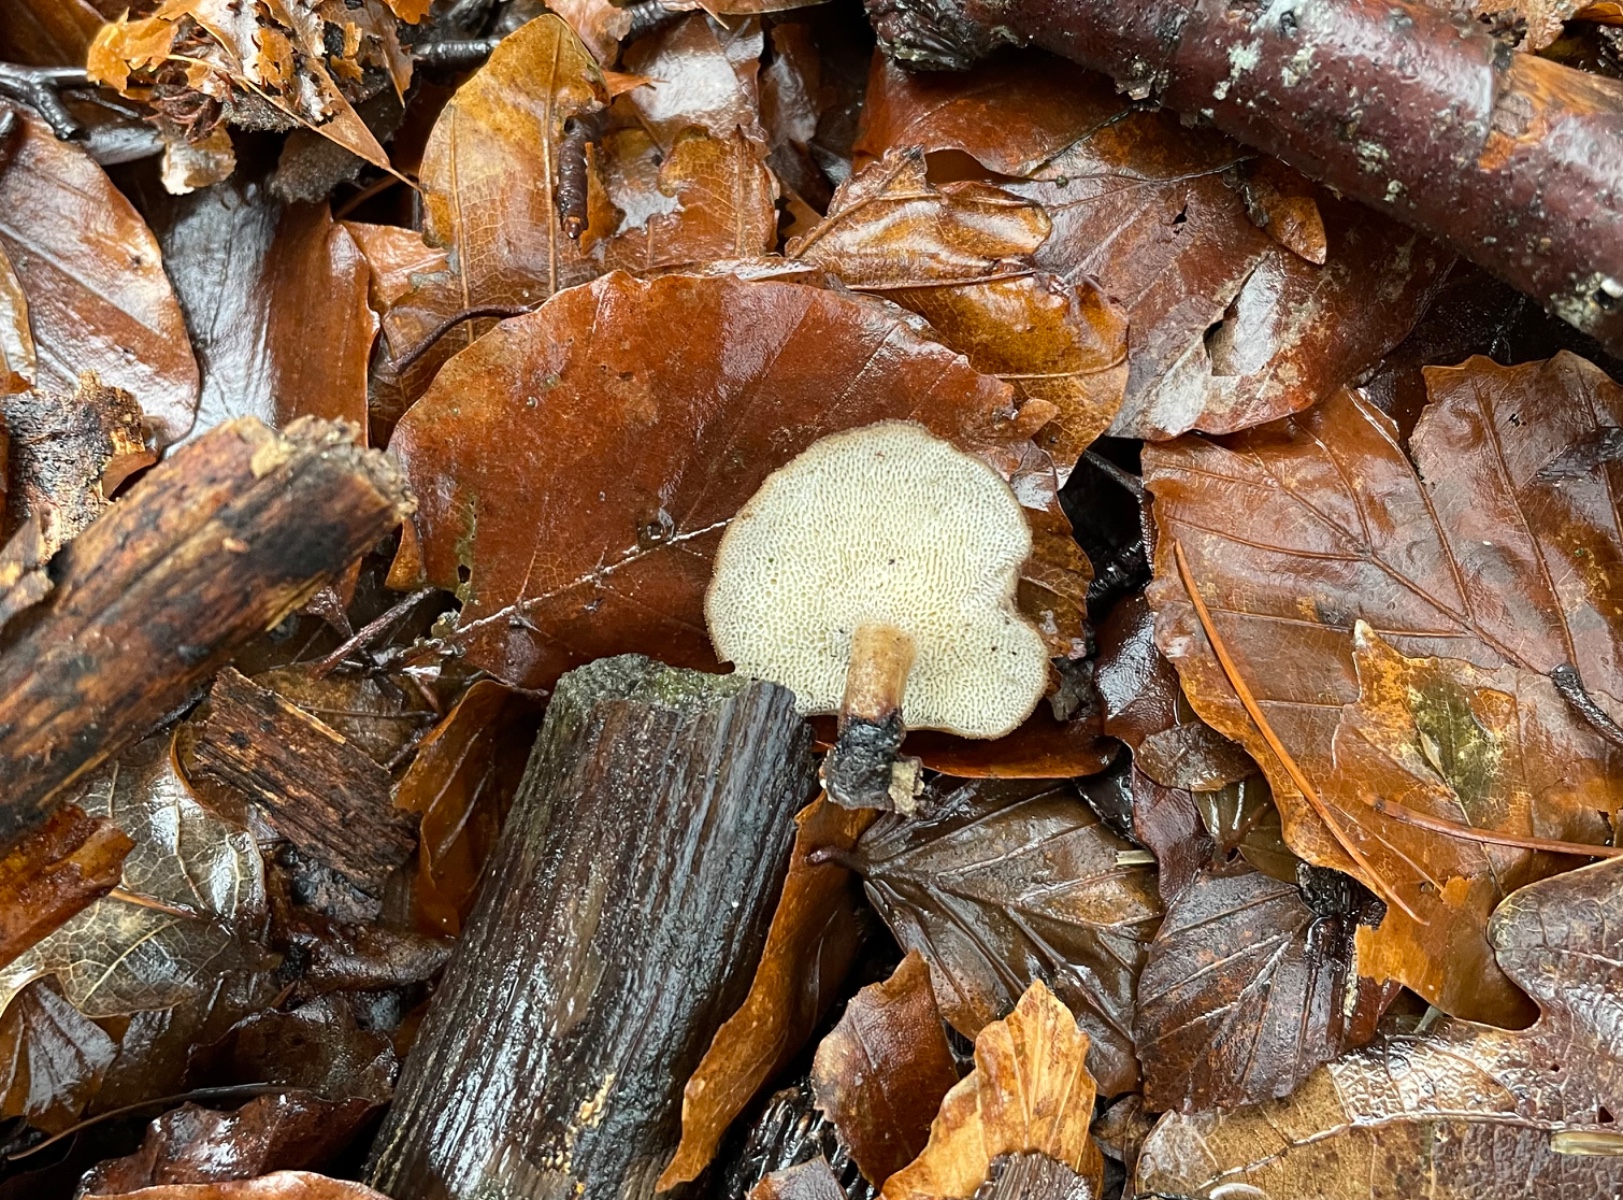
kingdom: Fungi
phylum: Basidiomycota
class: Agaricomycetes
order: Polyporales
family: Polyporaceae
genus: Lentinus
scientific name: Lentinus brumalis
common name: vinter-stilkporesvamp
